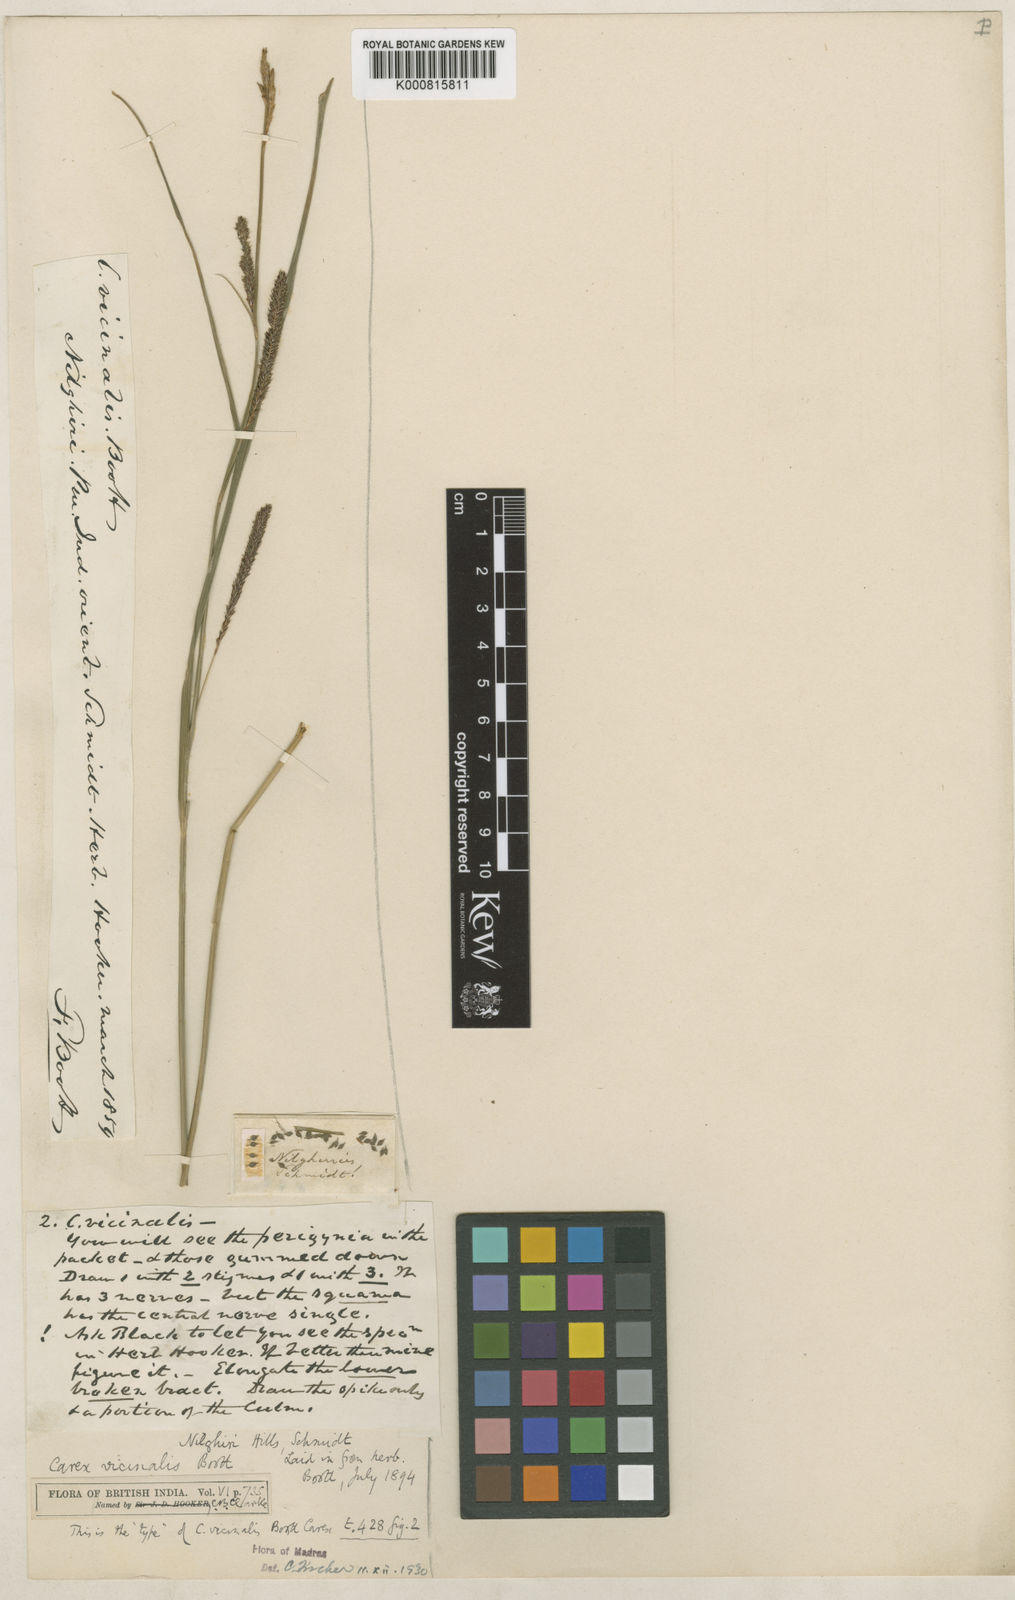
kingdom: Plantae
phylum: Tracheophyta
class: Liliopsida
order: Poales
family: Cyperaceae
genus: Carex
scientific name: Carex vicinalis
